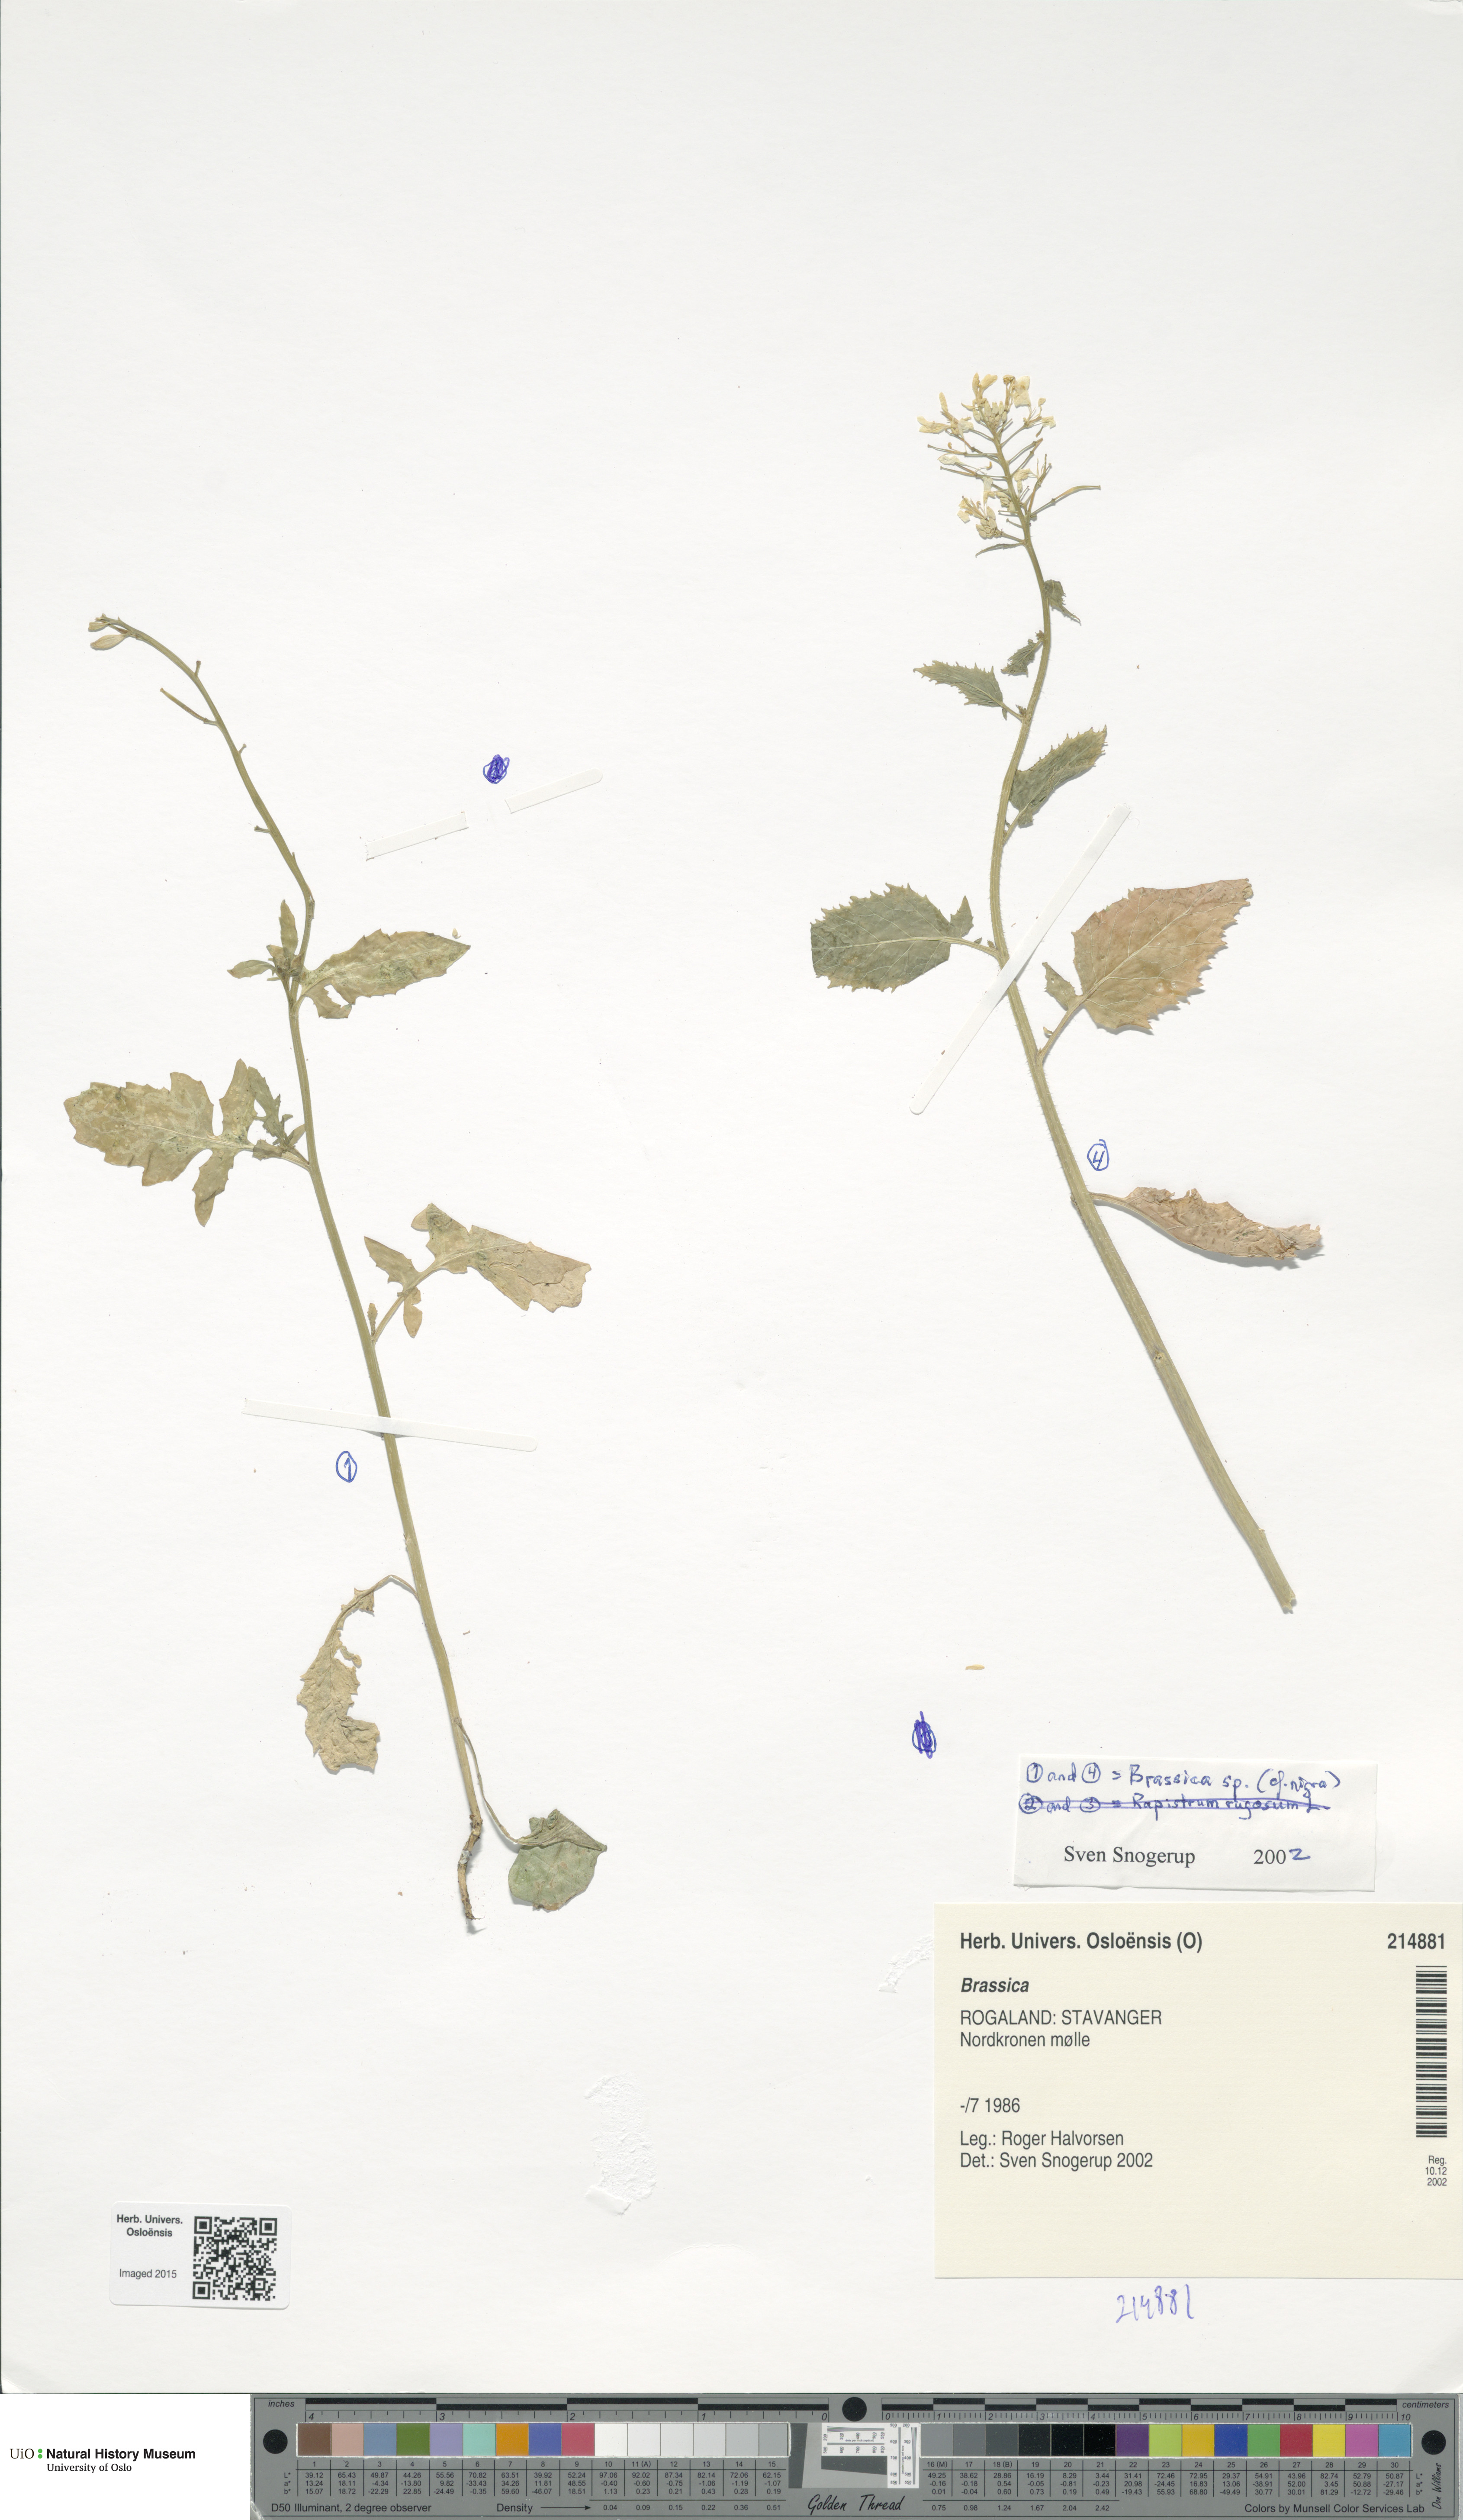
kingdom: Plantae
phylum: Tracheophyta
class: Magnoliopsida
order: Brassicales
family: Brassicaceae
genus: Brassica
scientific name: Brassica
